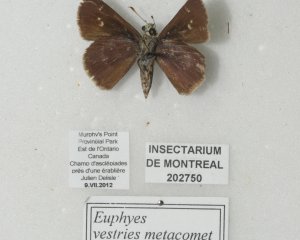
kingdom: Animalia
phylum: Arthropoda
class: Insecta
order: Lepidoptera
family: Hesperiidae
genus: Euphyes
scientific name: Euphyes vestris
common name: Dun Skipper
